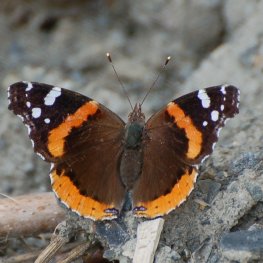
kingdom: Animalia
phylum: Arthropoda
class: Insecta
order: Lepidoptera
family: Nymphalidae
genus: Vanessa
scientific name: Vanessa atalanta
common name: Red Admiral
